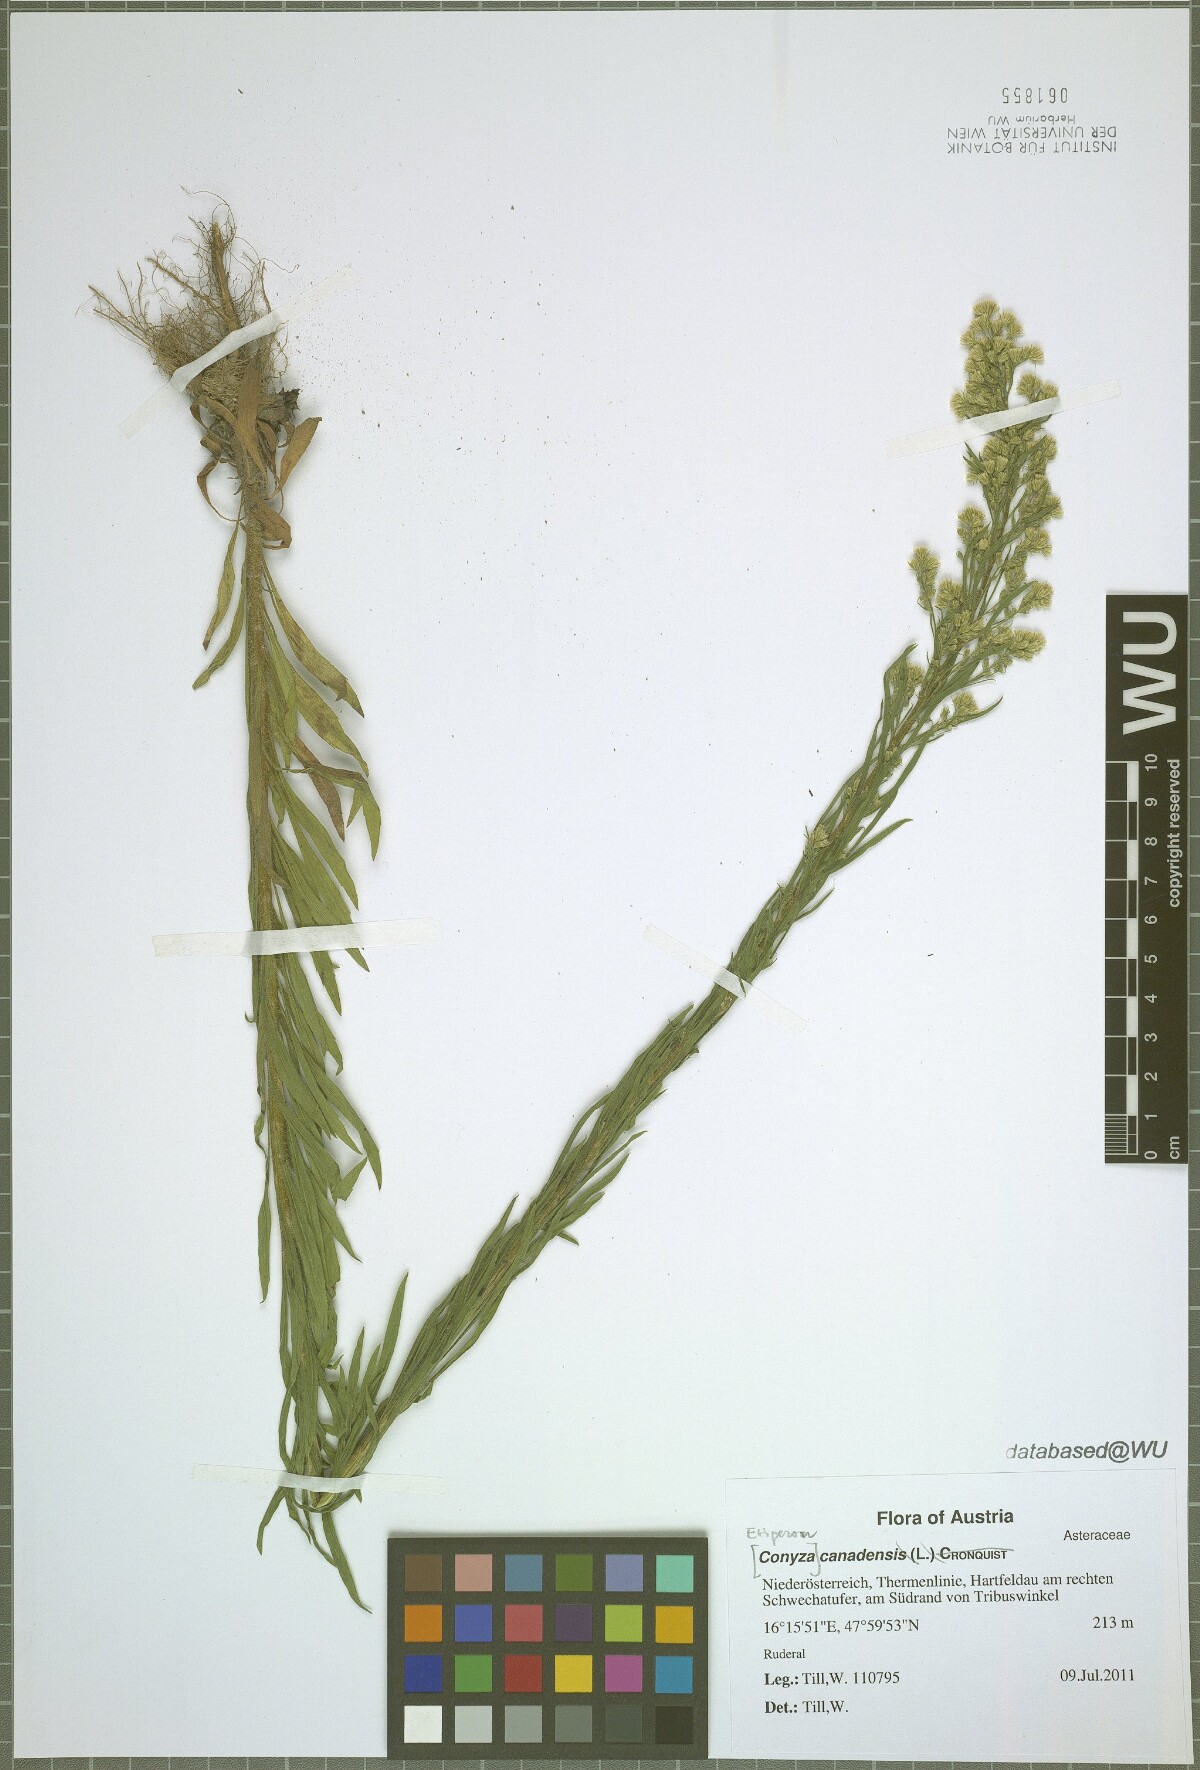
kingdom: Plantae
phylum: Tracheophyta
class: Magnoliopsida
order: Asterales
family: Asteraceae
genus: Erigeron
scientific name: Erigeron canadensis
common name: Canadian fleabane
